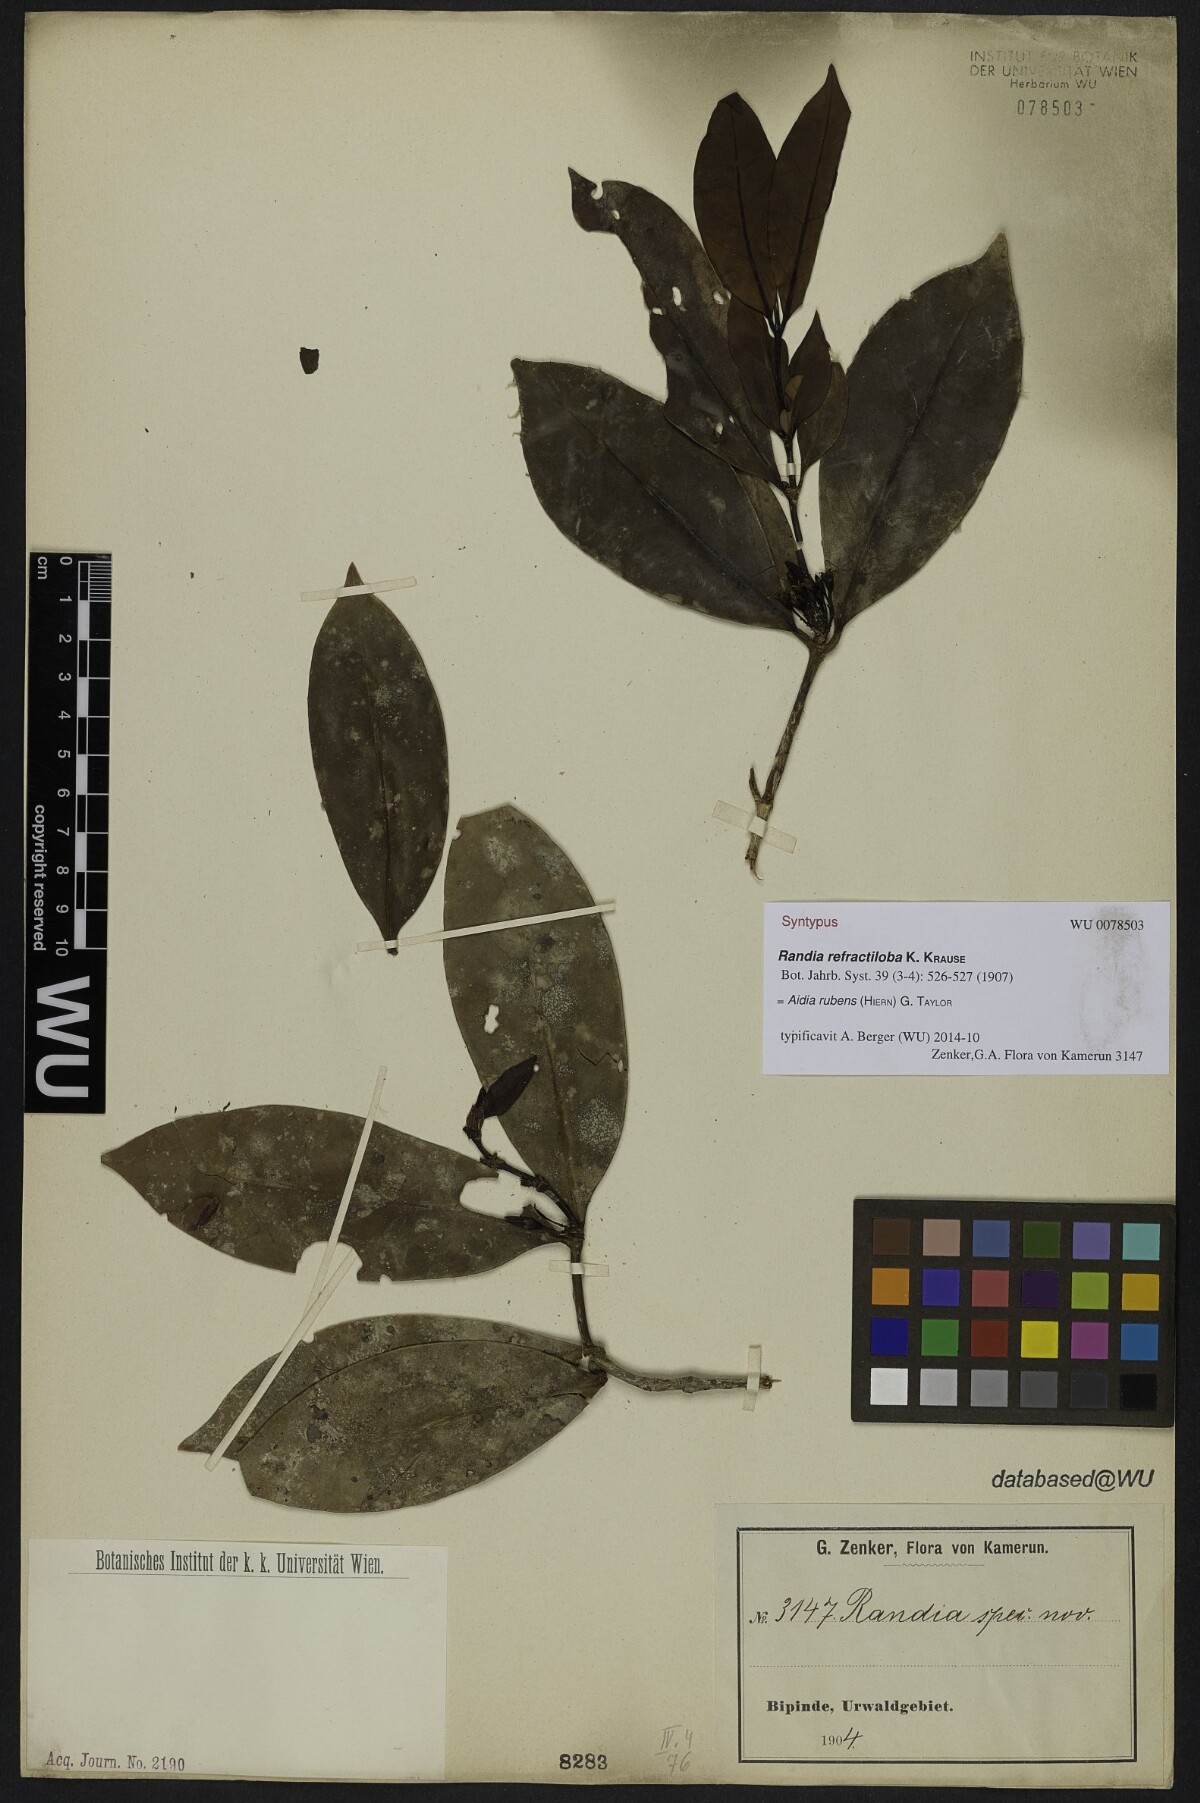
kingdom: Plantae
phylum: Tracheophyta
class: Magnoliopsida
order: Gentianales
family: Rubiaceae
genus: Aidia
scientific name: Aidia rubens
